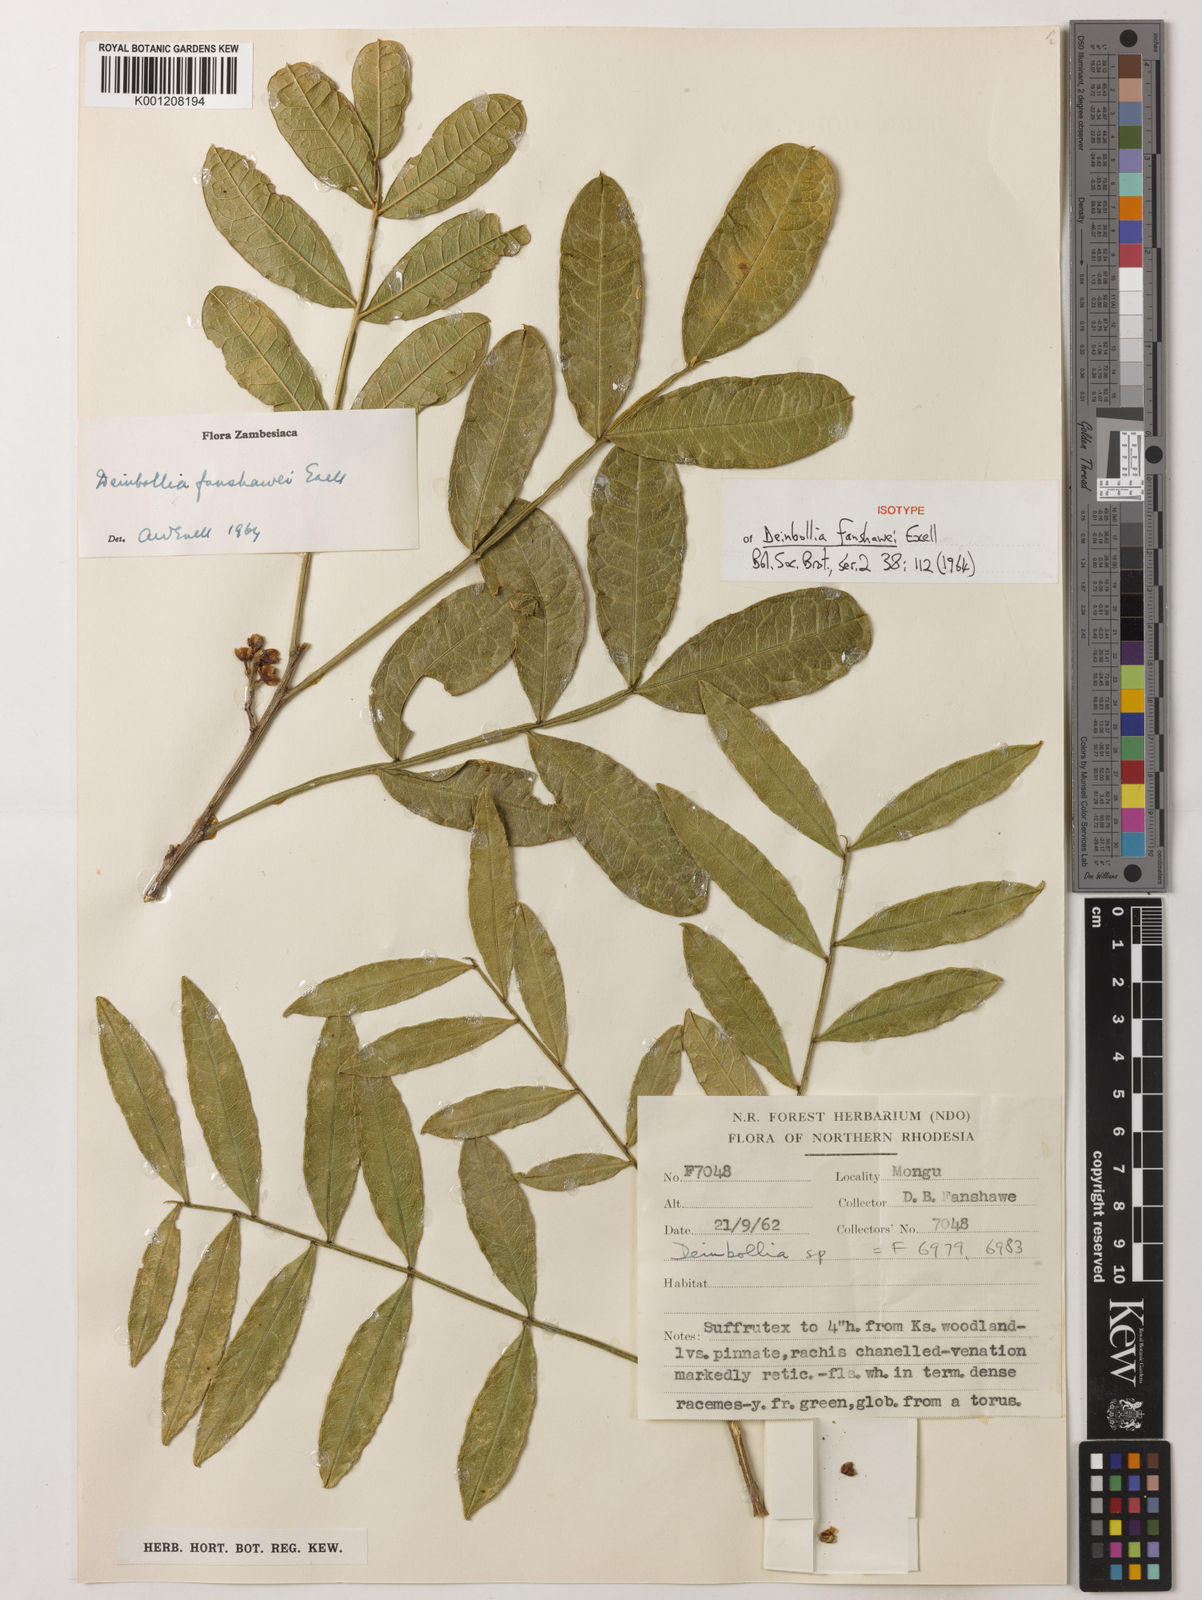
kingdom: Plantae
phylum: Tracheophyta
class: Magnoliopsida
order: Sapindales
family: Sapindaceae
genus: Deinbollia
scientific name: Deinbollia fanshawei
